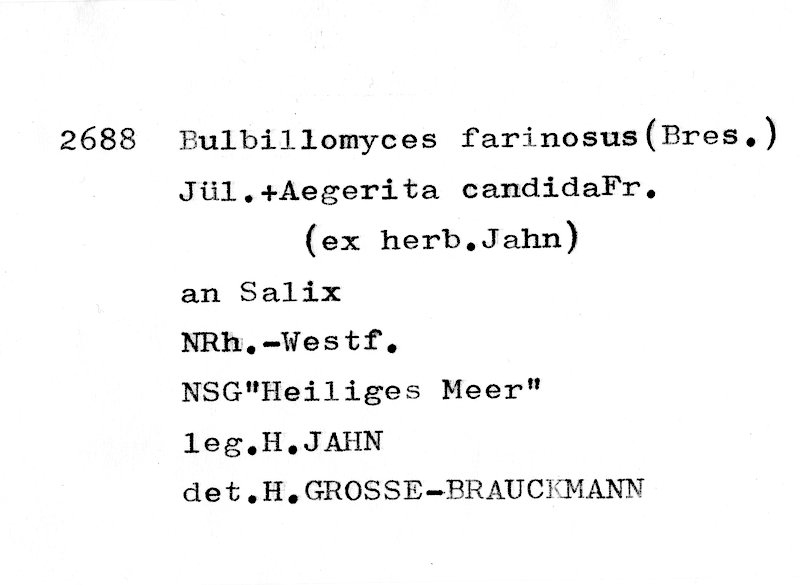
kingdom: Plantae
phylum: Tracheophyta
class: Magnoliopsida
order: Malpighiales
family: Salicaceae
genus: Salix
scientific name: Salix
